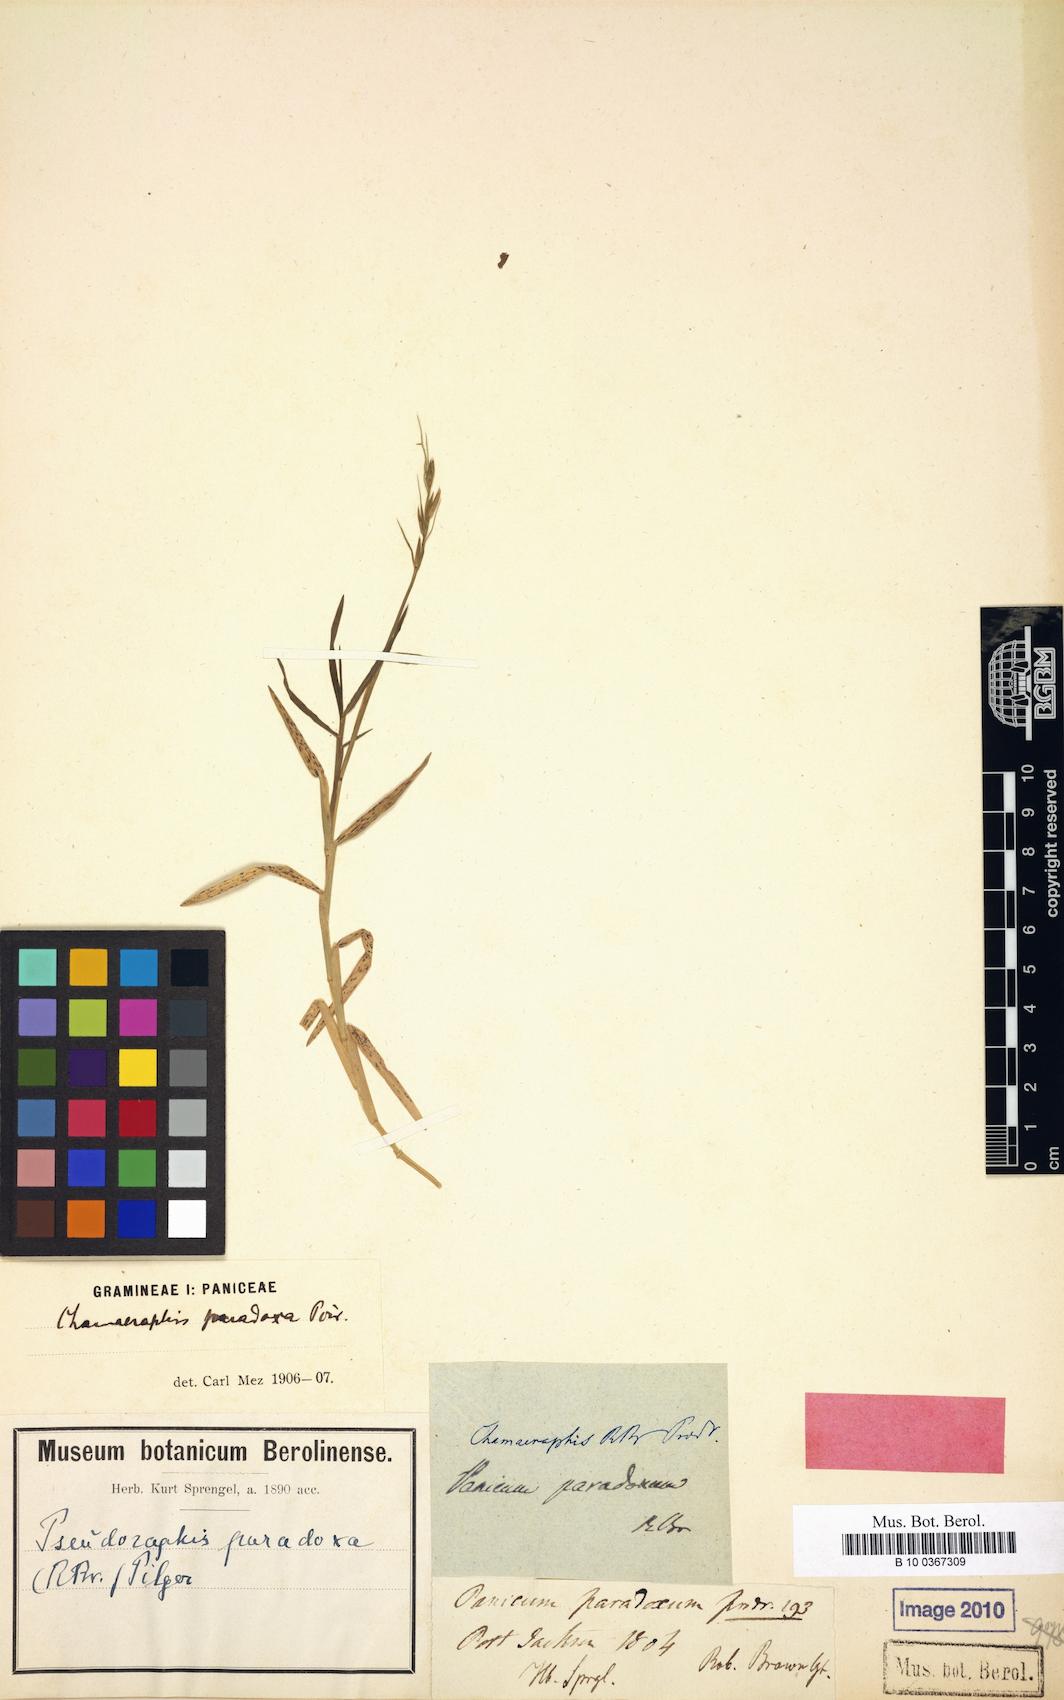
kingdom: Plantae
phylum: Tracheophyta
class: Liliopsida
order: Poales
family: Poaceae
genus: Pseudoraphis
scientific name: Pseudoraphis paradoxa
